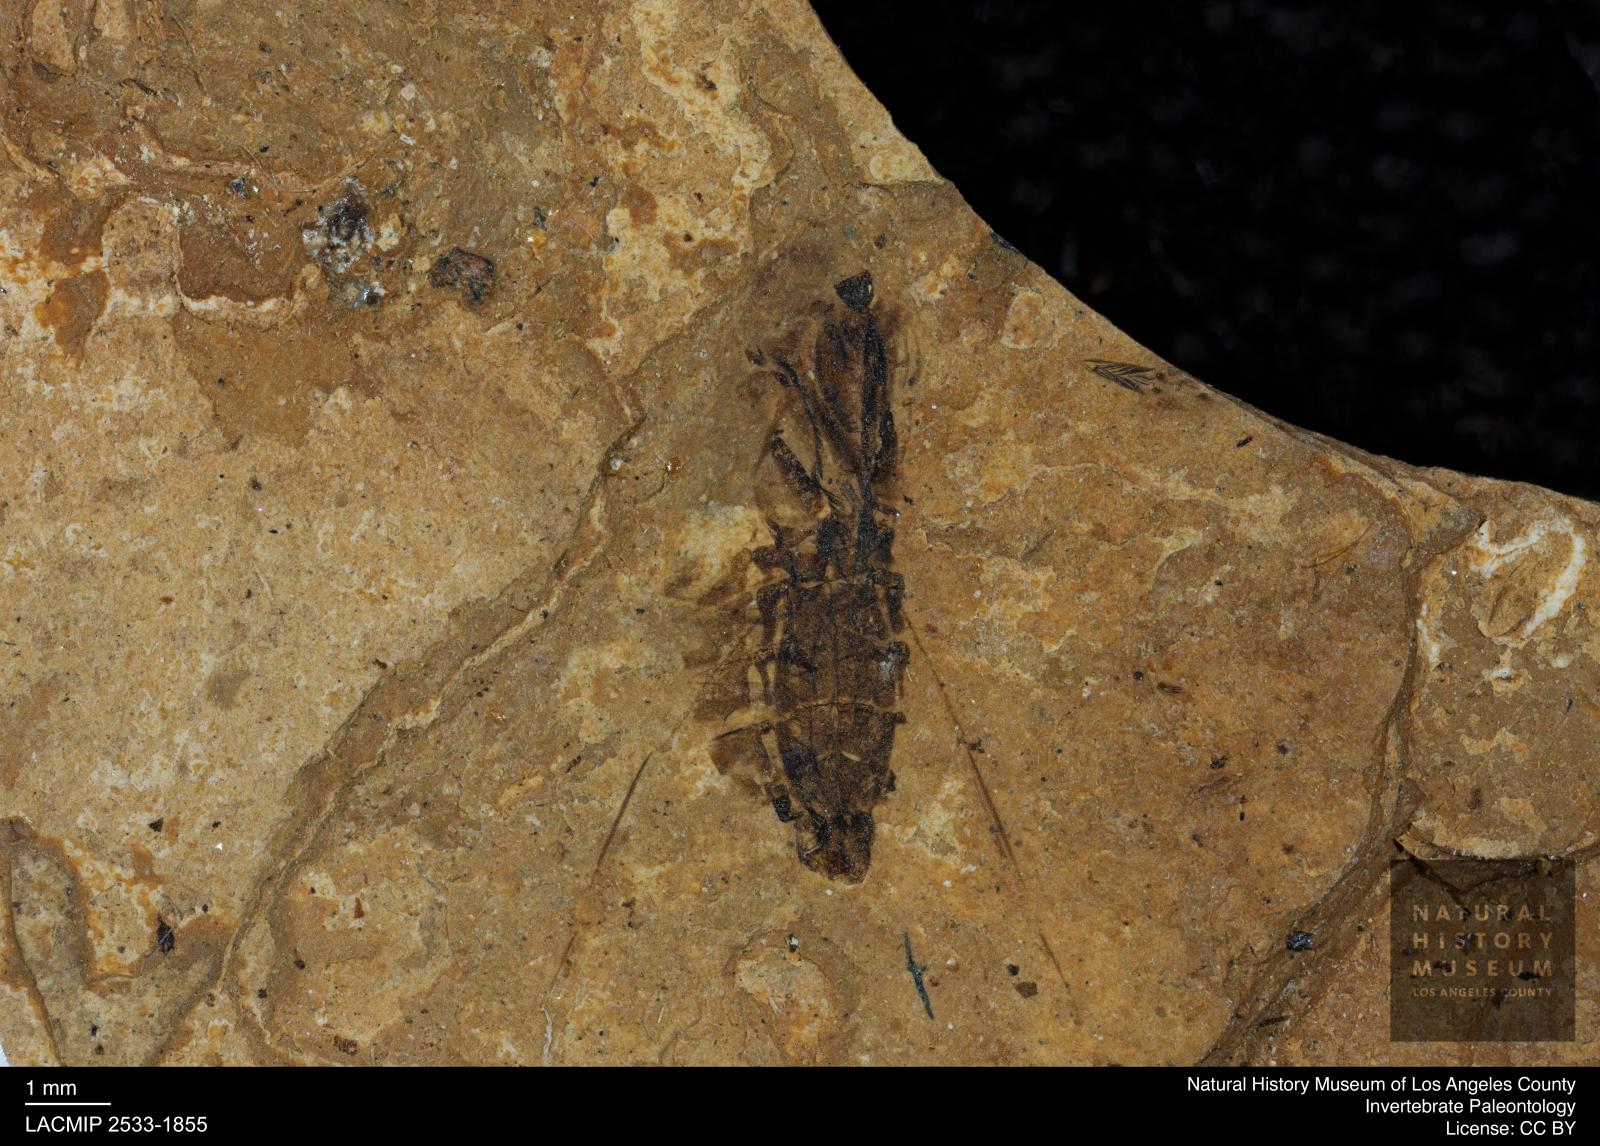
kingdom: Animalia
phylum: Arthropoda
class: Insecta
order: Hemiptera
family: Notonectidae
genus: Notonecta
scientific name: Notonecta
